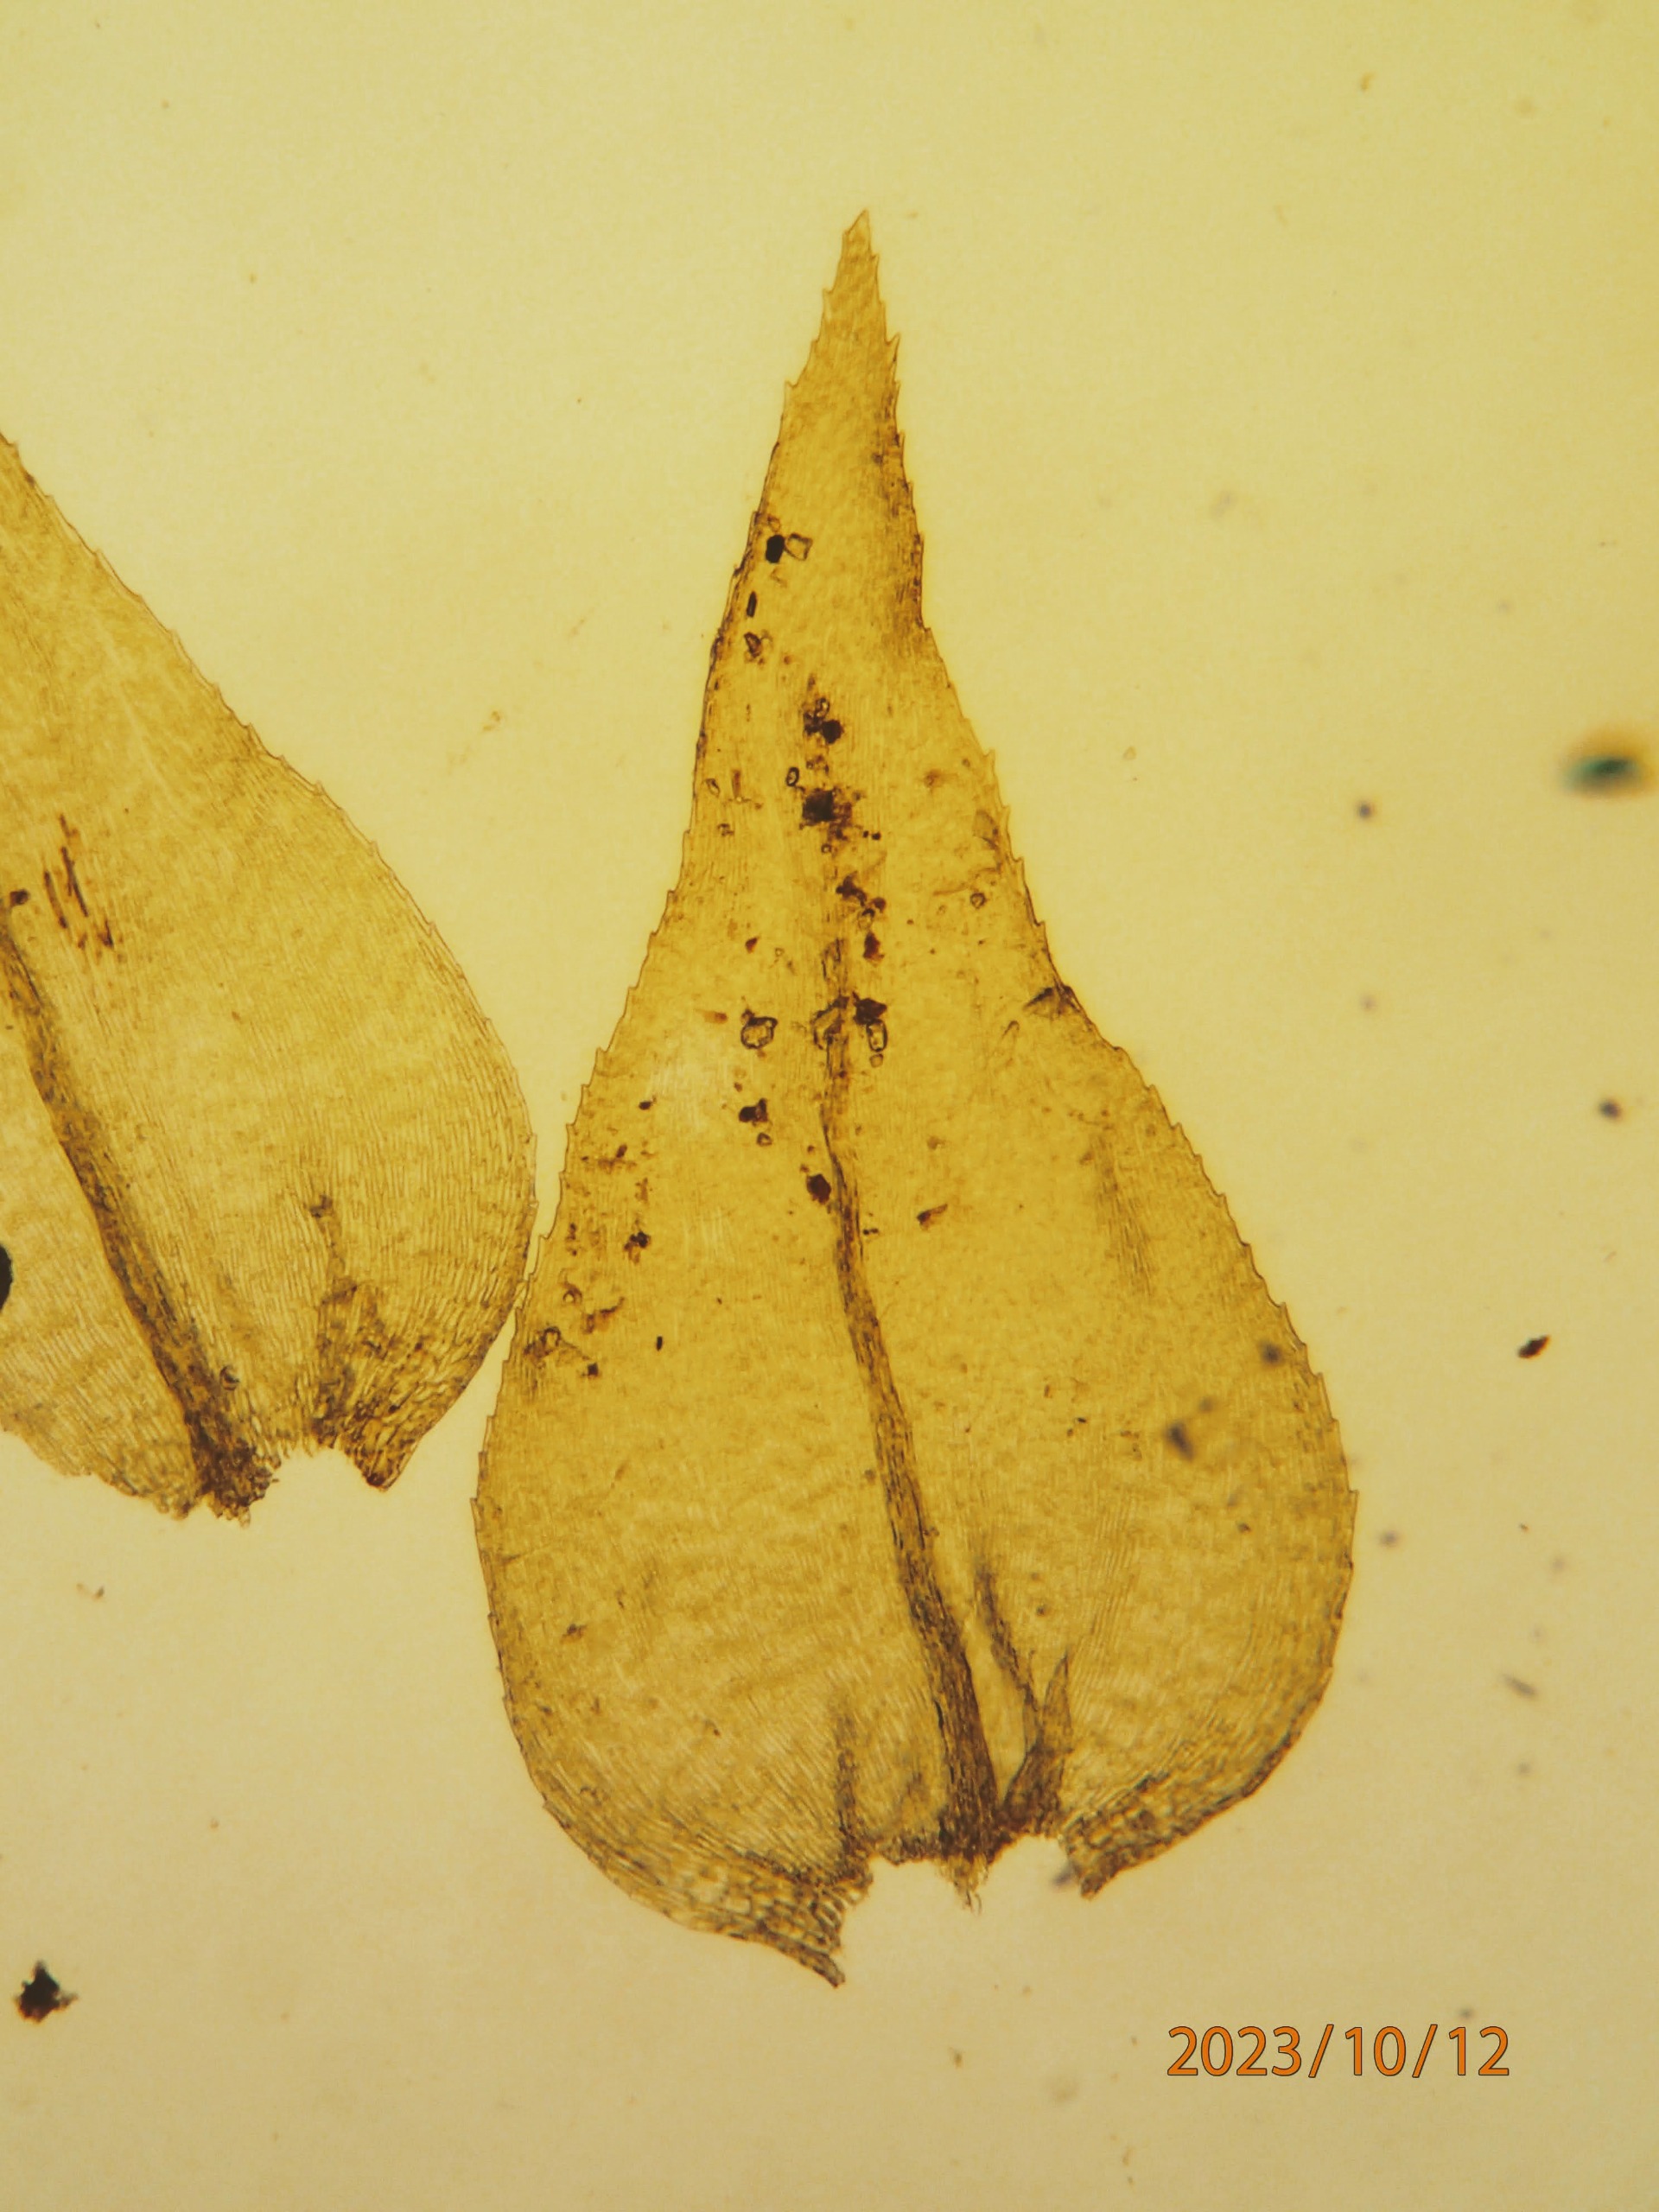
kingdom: Plantae
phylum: Bryophyta
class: Bryopsida
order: Hypnales
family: Brachytheciaceae
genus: Eurhynchium
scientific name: Eurhynchium striatum
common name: Stribet næbmos
